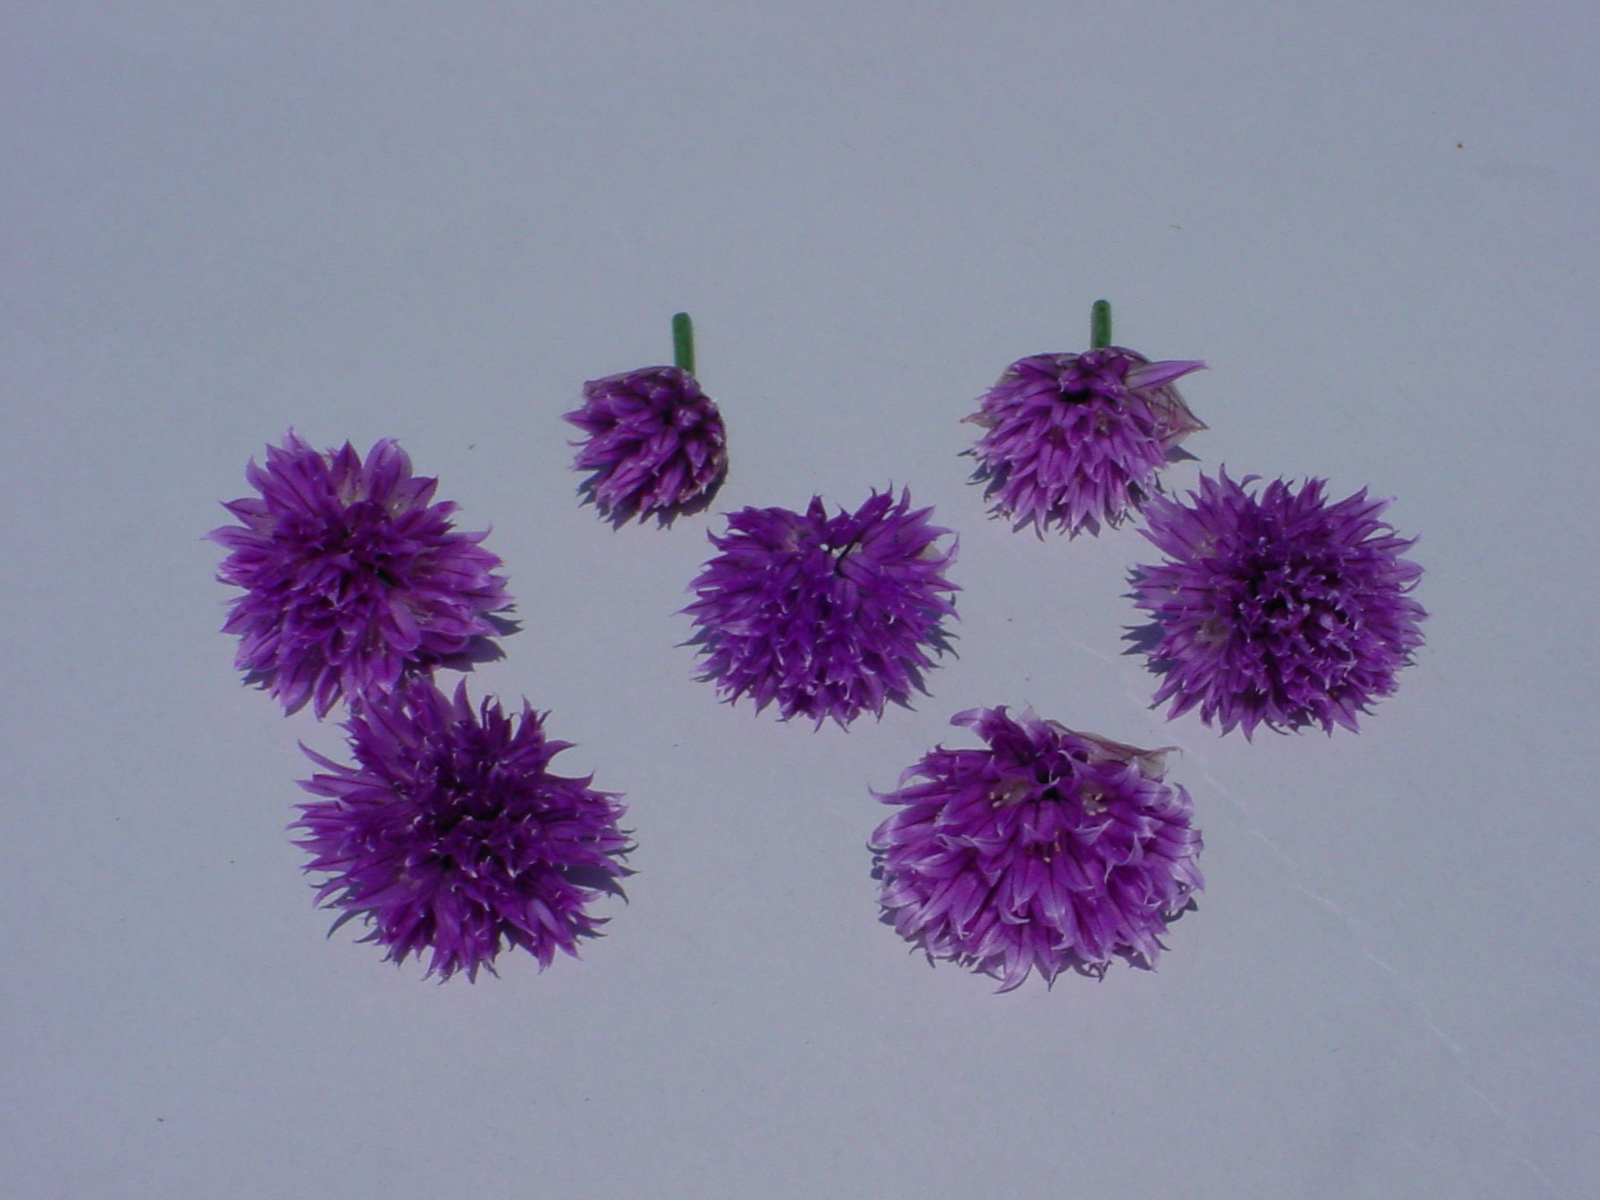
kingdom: Plantae
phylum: Tracheophyta
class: Liliopsida
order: Asparagales
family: Amaryllidaceae
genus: Allium
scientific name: Allium schoenoprasum
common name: Chives
